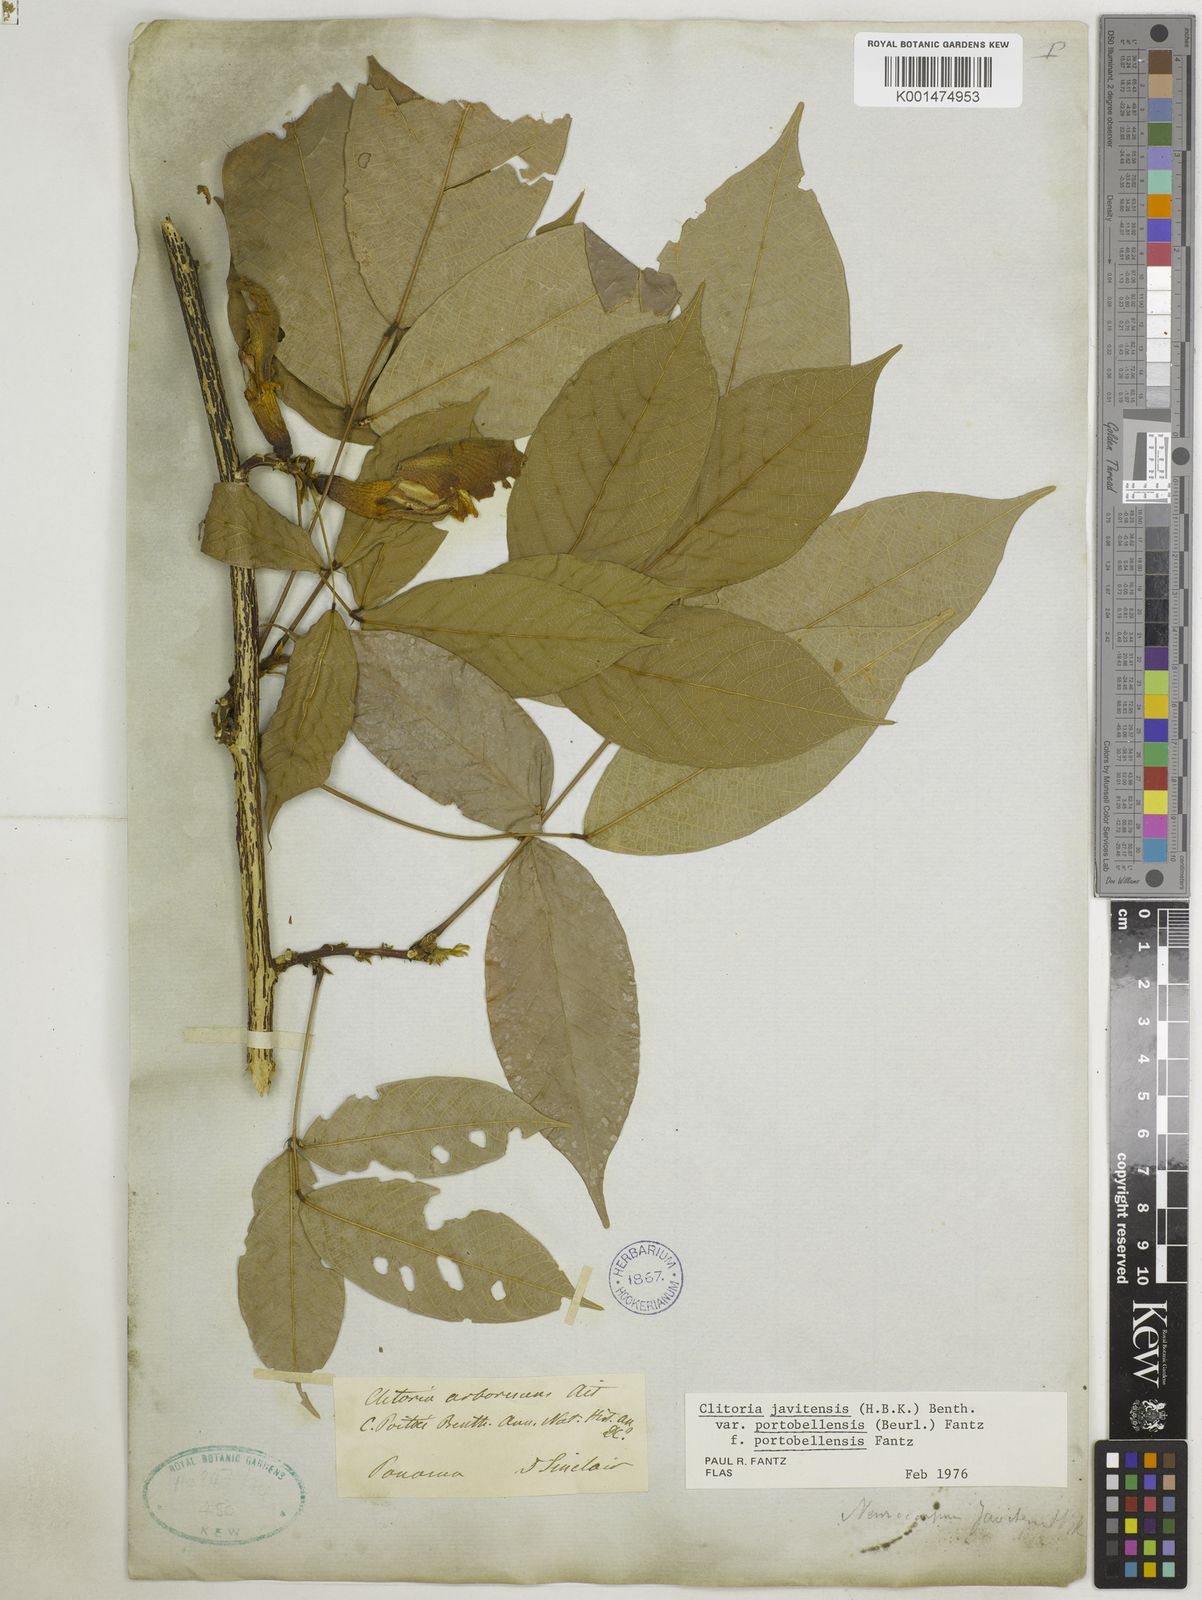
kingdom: Plantae
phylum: Tracheophyta
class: Magnoliopsida
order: Fabales
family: Fabaceae
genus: Clitoria
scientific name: Clitoria javitensis
